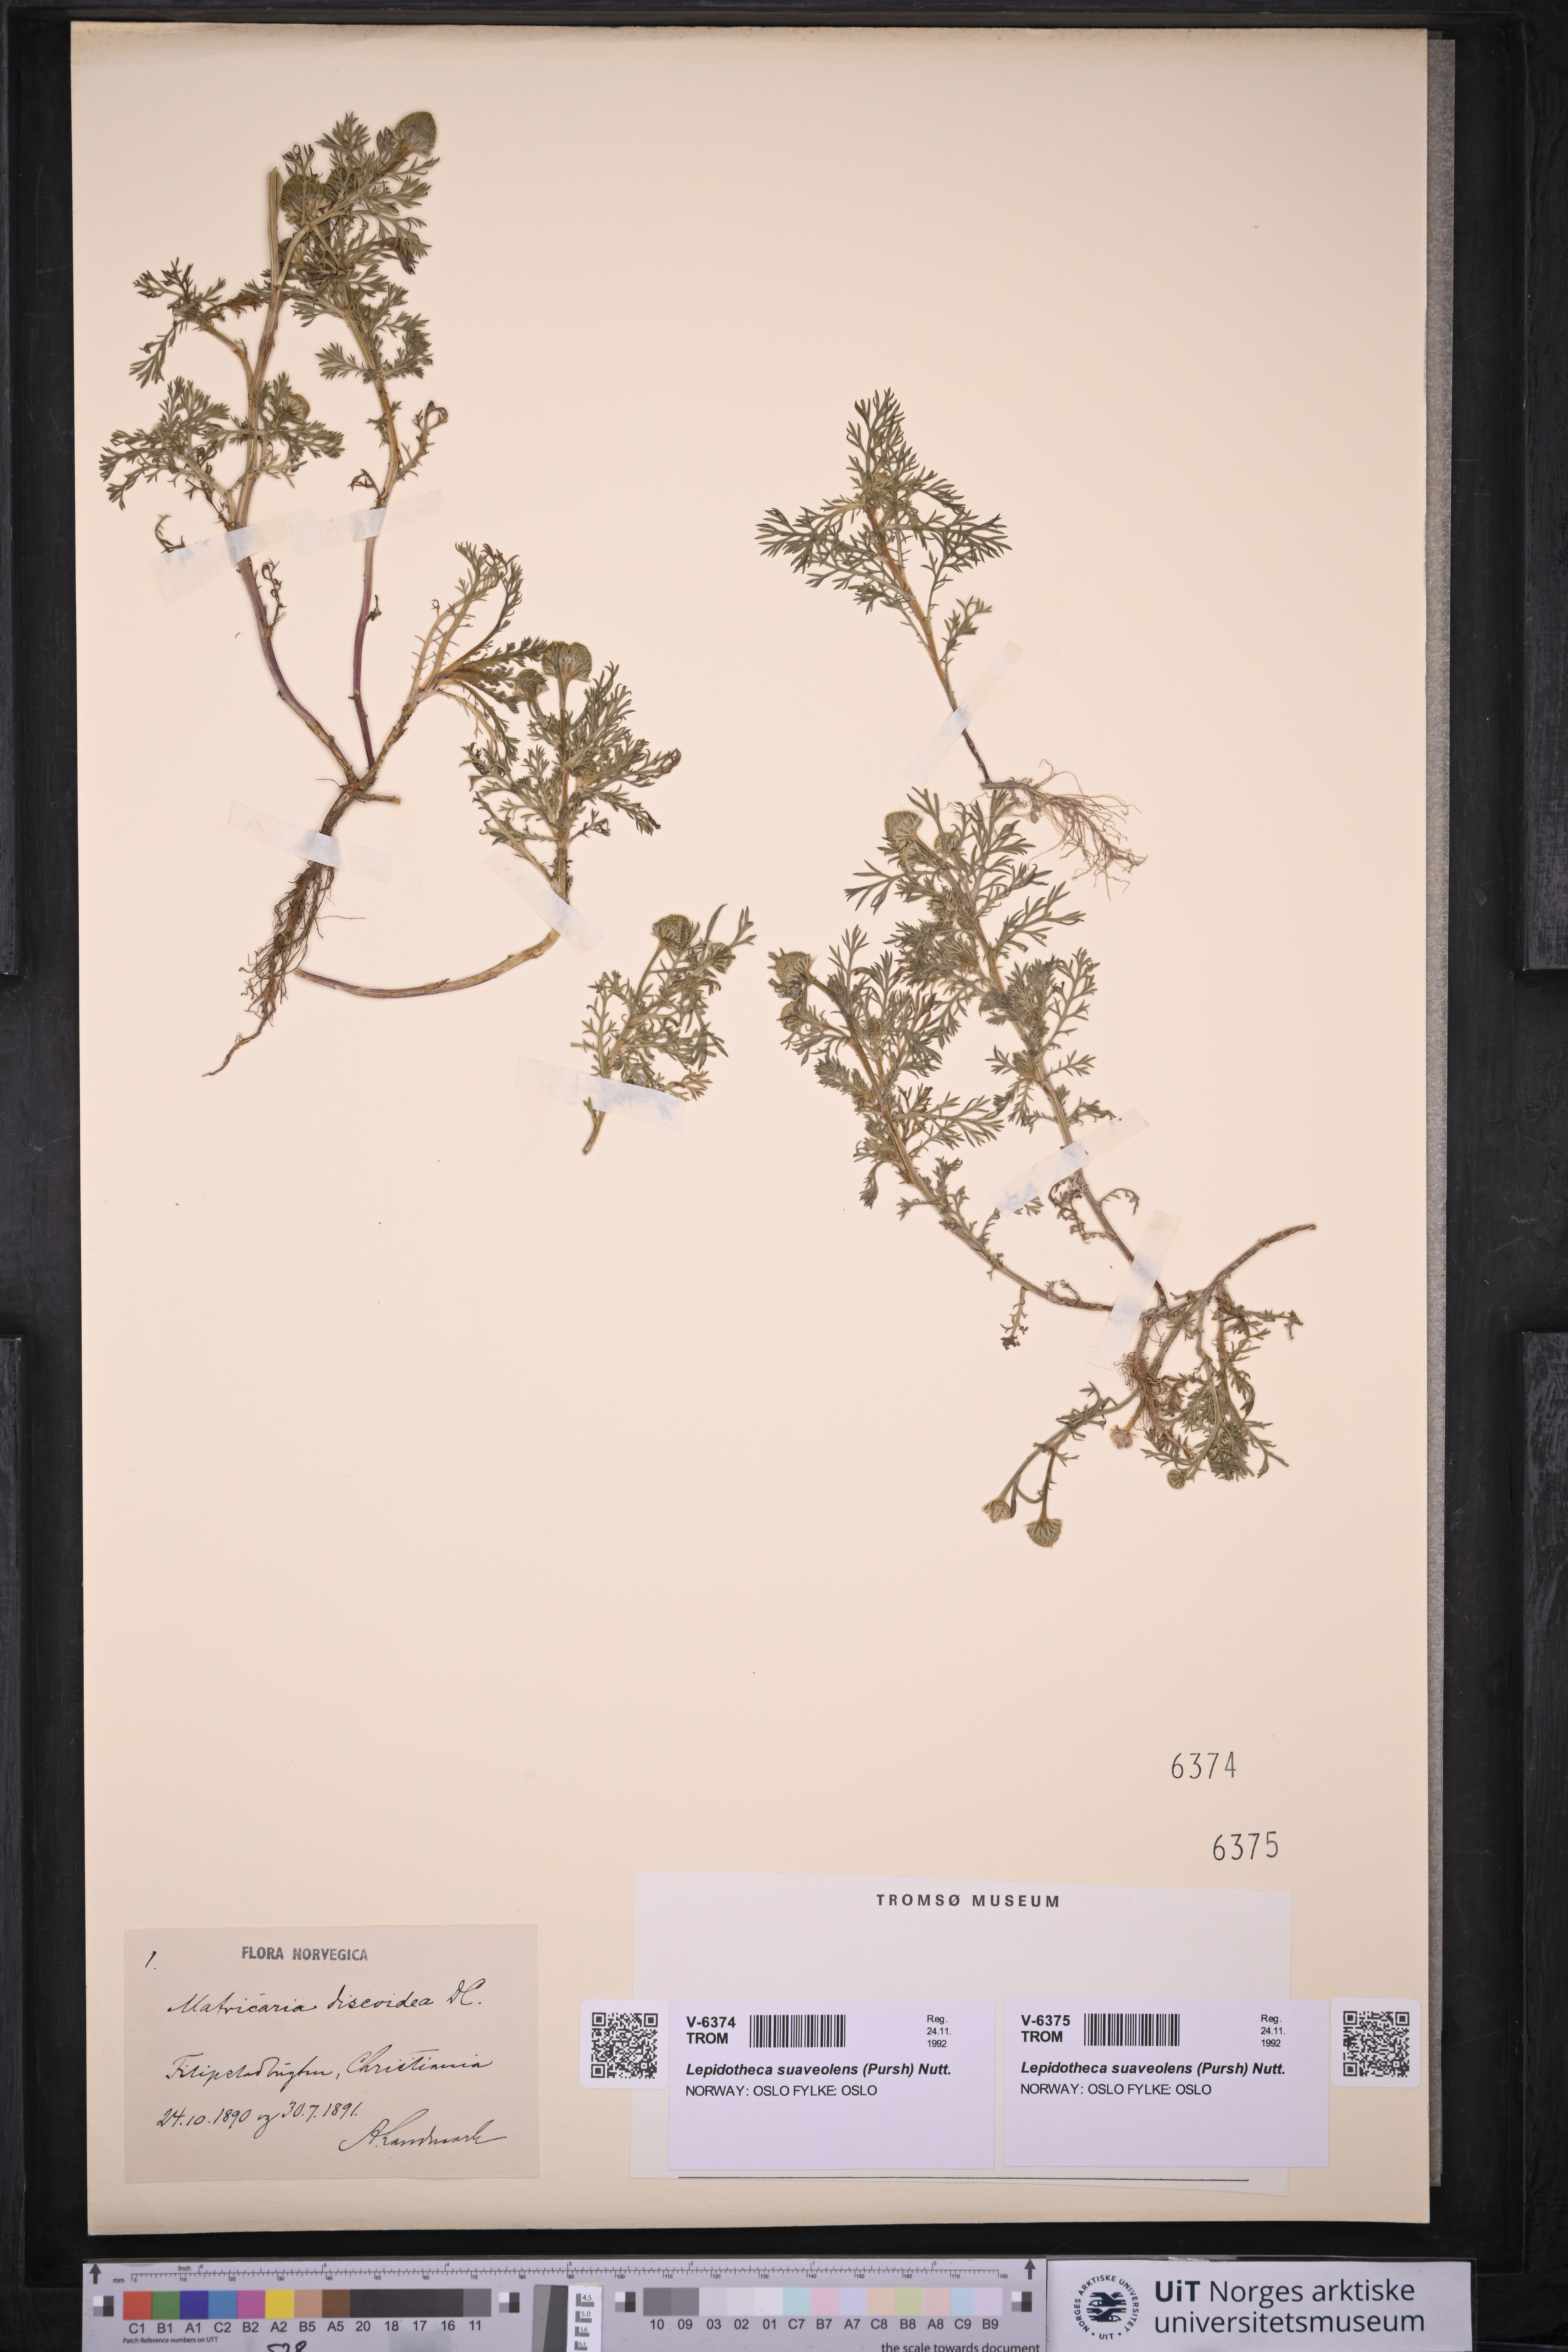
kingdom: Plantae
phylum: Tracheophyta
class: Magnoliopsida
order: Asterales
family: Asteraceae
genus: Matricaria
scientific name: Matricaria discoidea
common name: Disc mayweed
